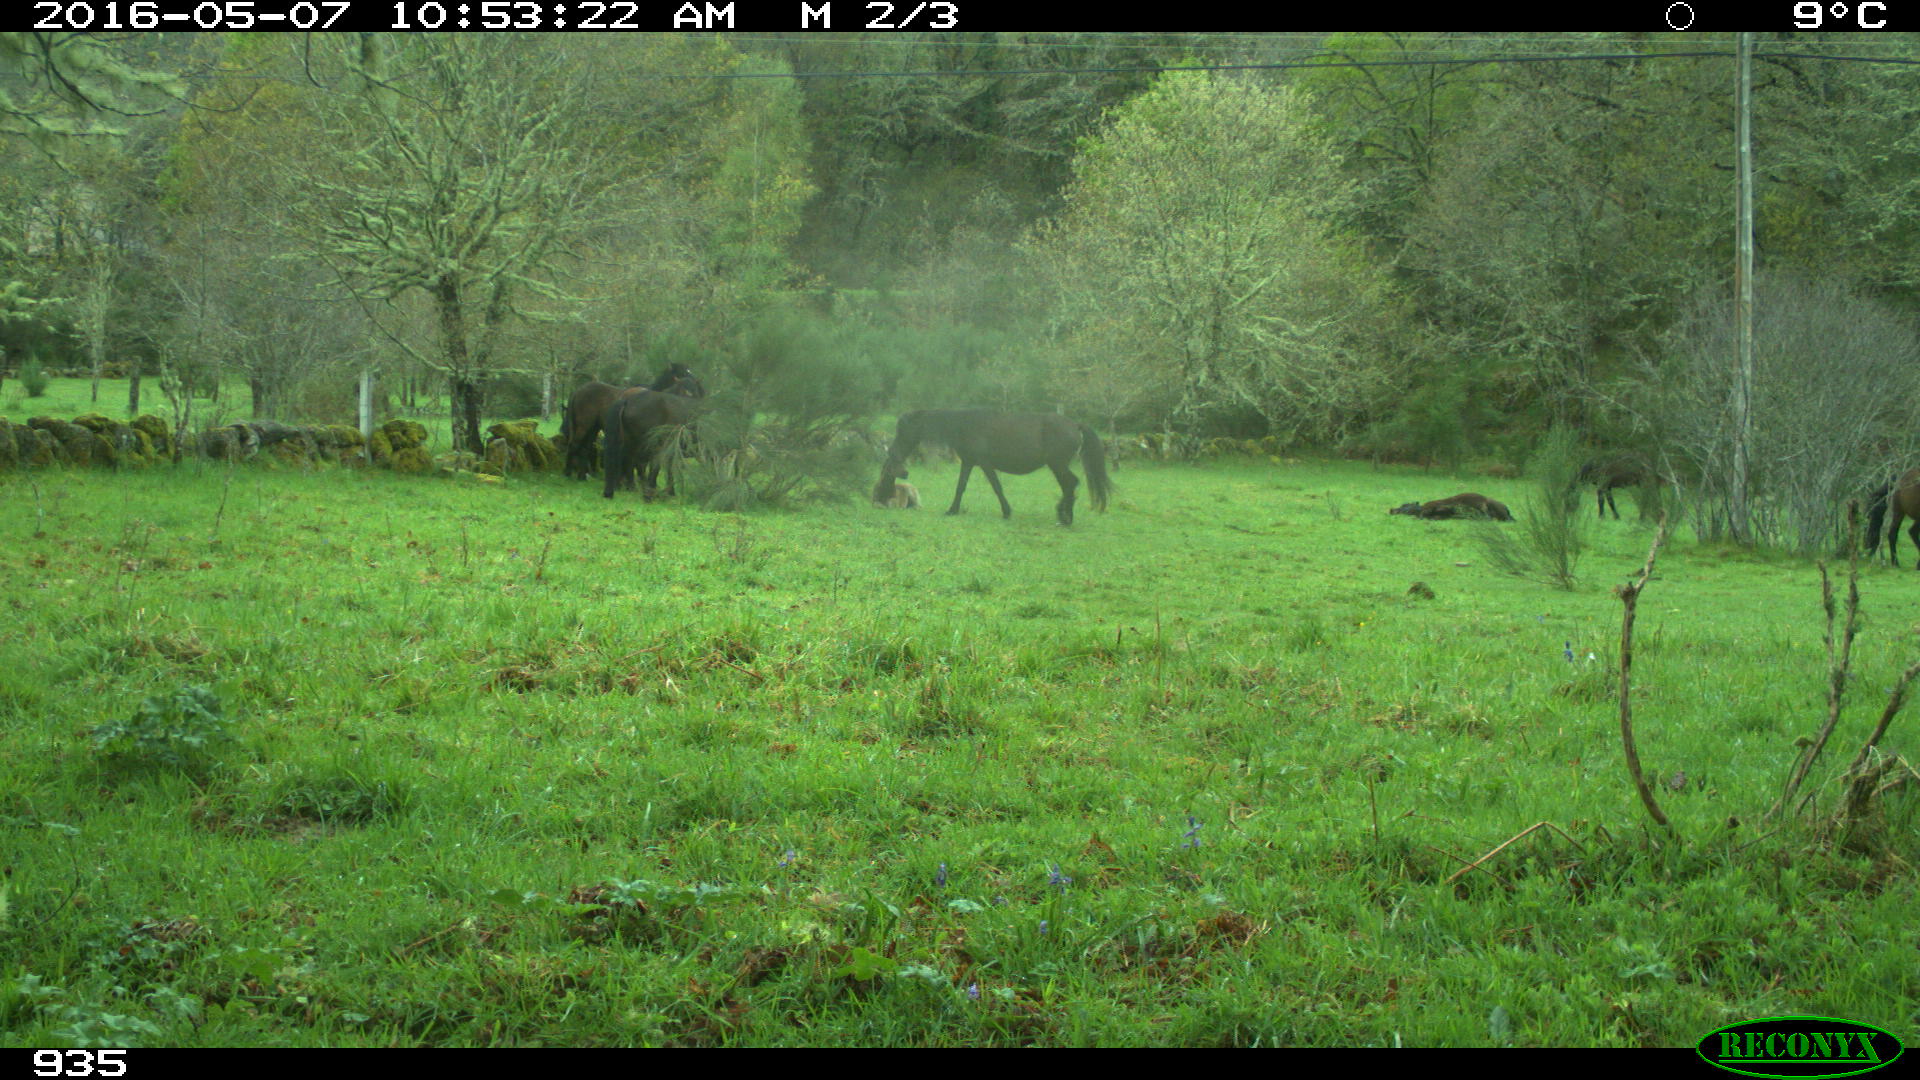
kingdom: Animalia
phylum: Chordata
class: Mammalia
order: Perissodactyla
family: Equidae
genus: Equus
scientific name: Equus caballus
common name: Horse
